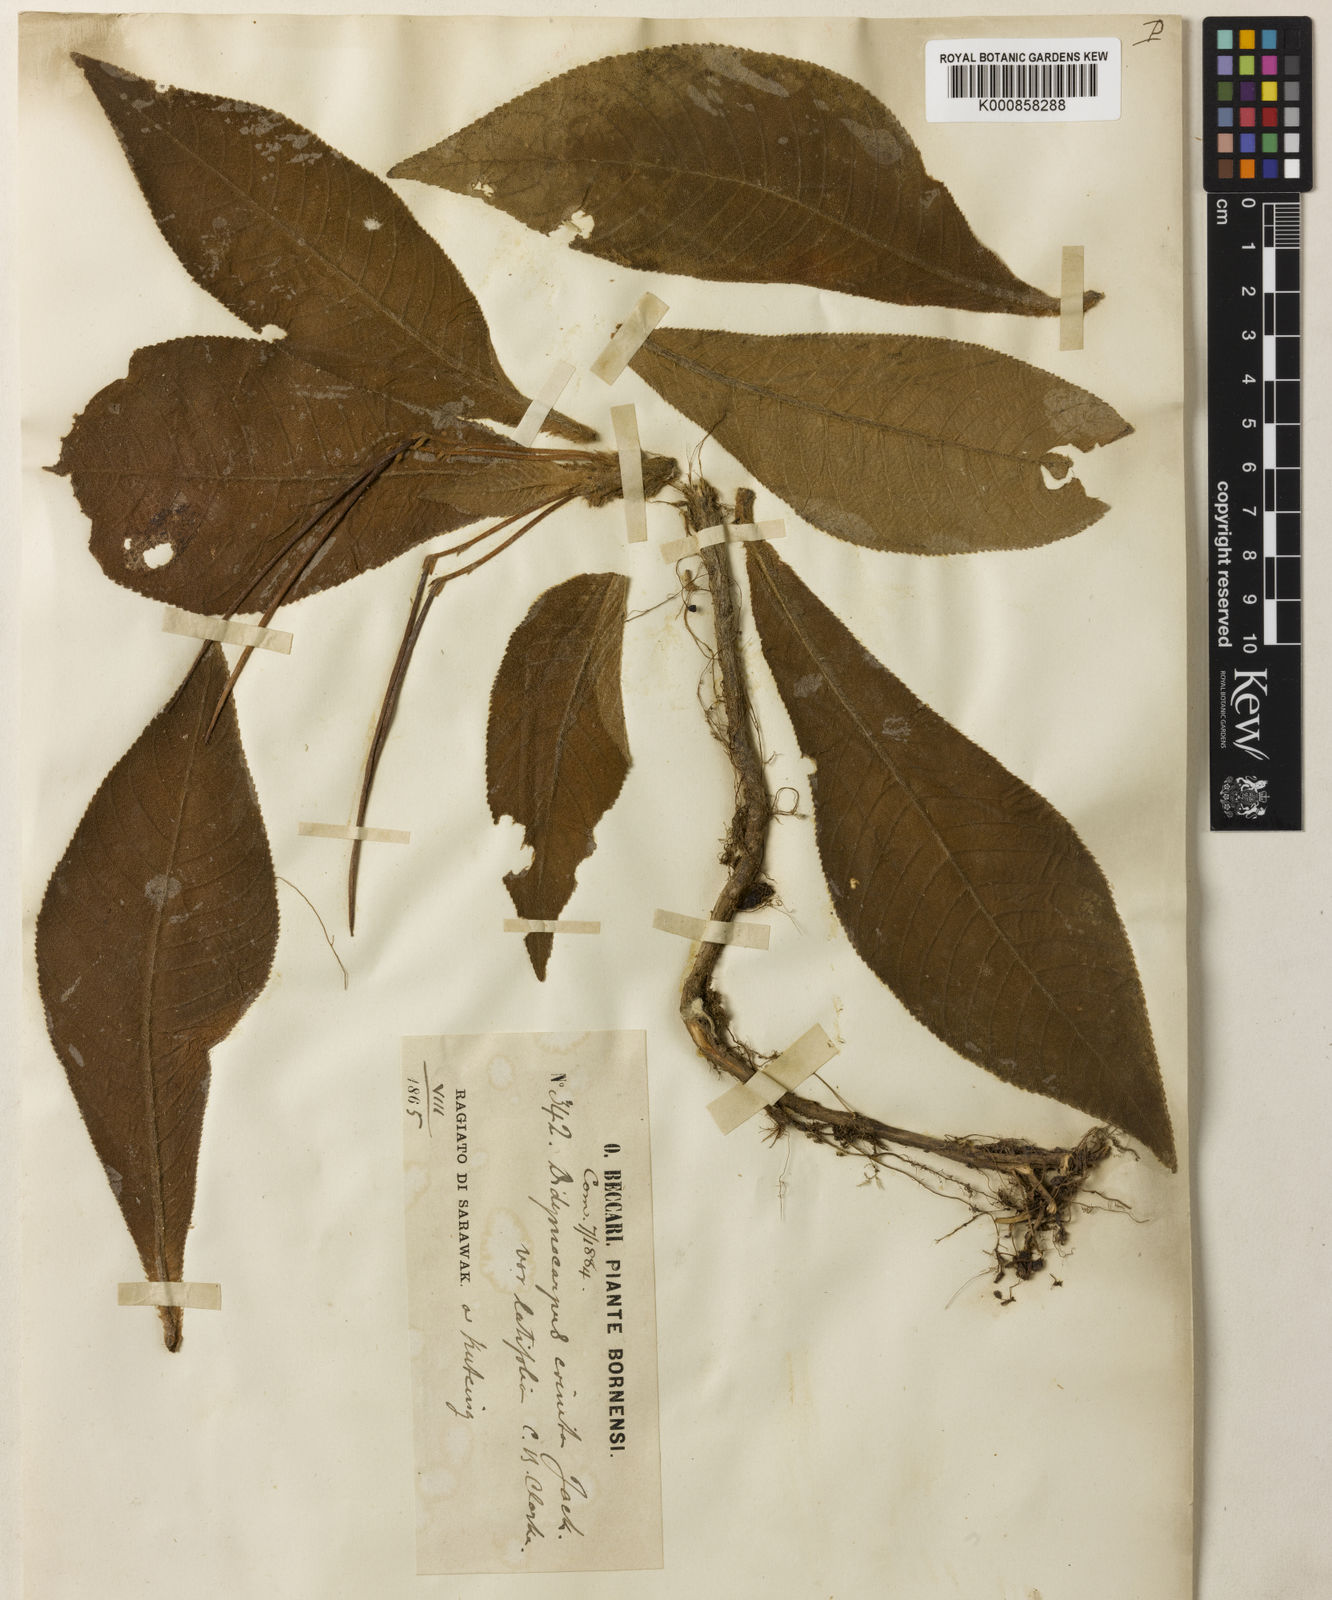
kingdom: Plantae
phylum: Tracheophyta
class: Magnoliopsida
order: Lamiales
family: Gesneriaceae
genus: Codonoboea
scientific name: Codonoboea crinita
